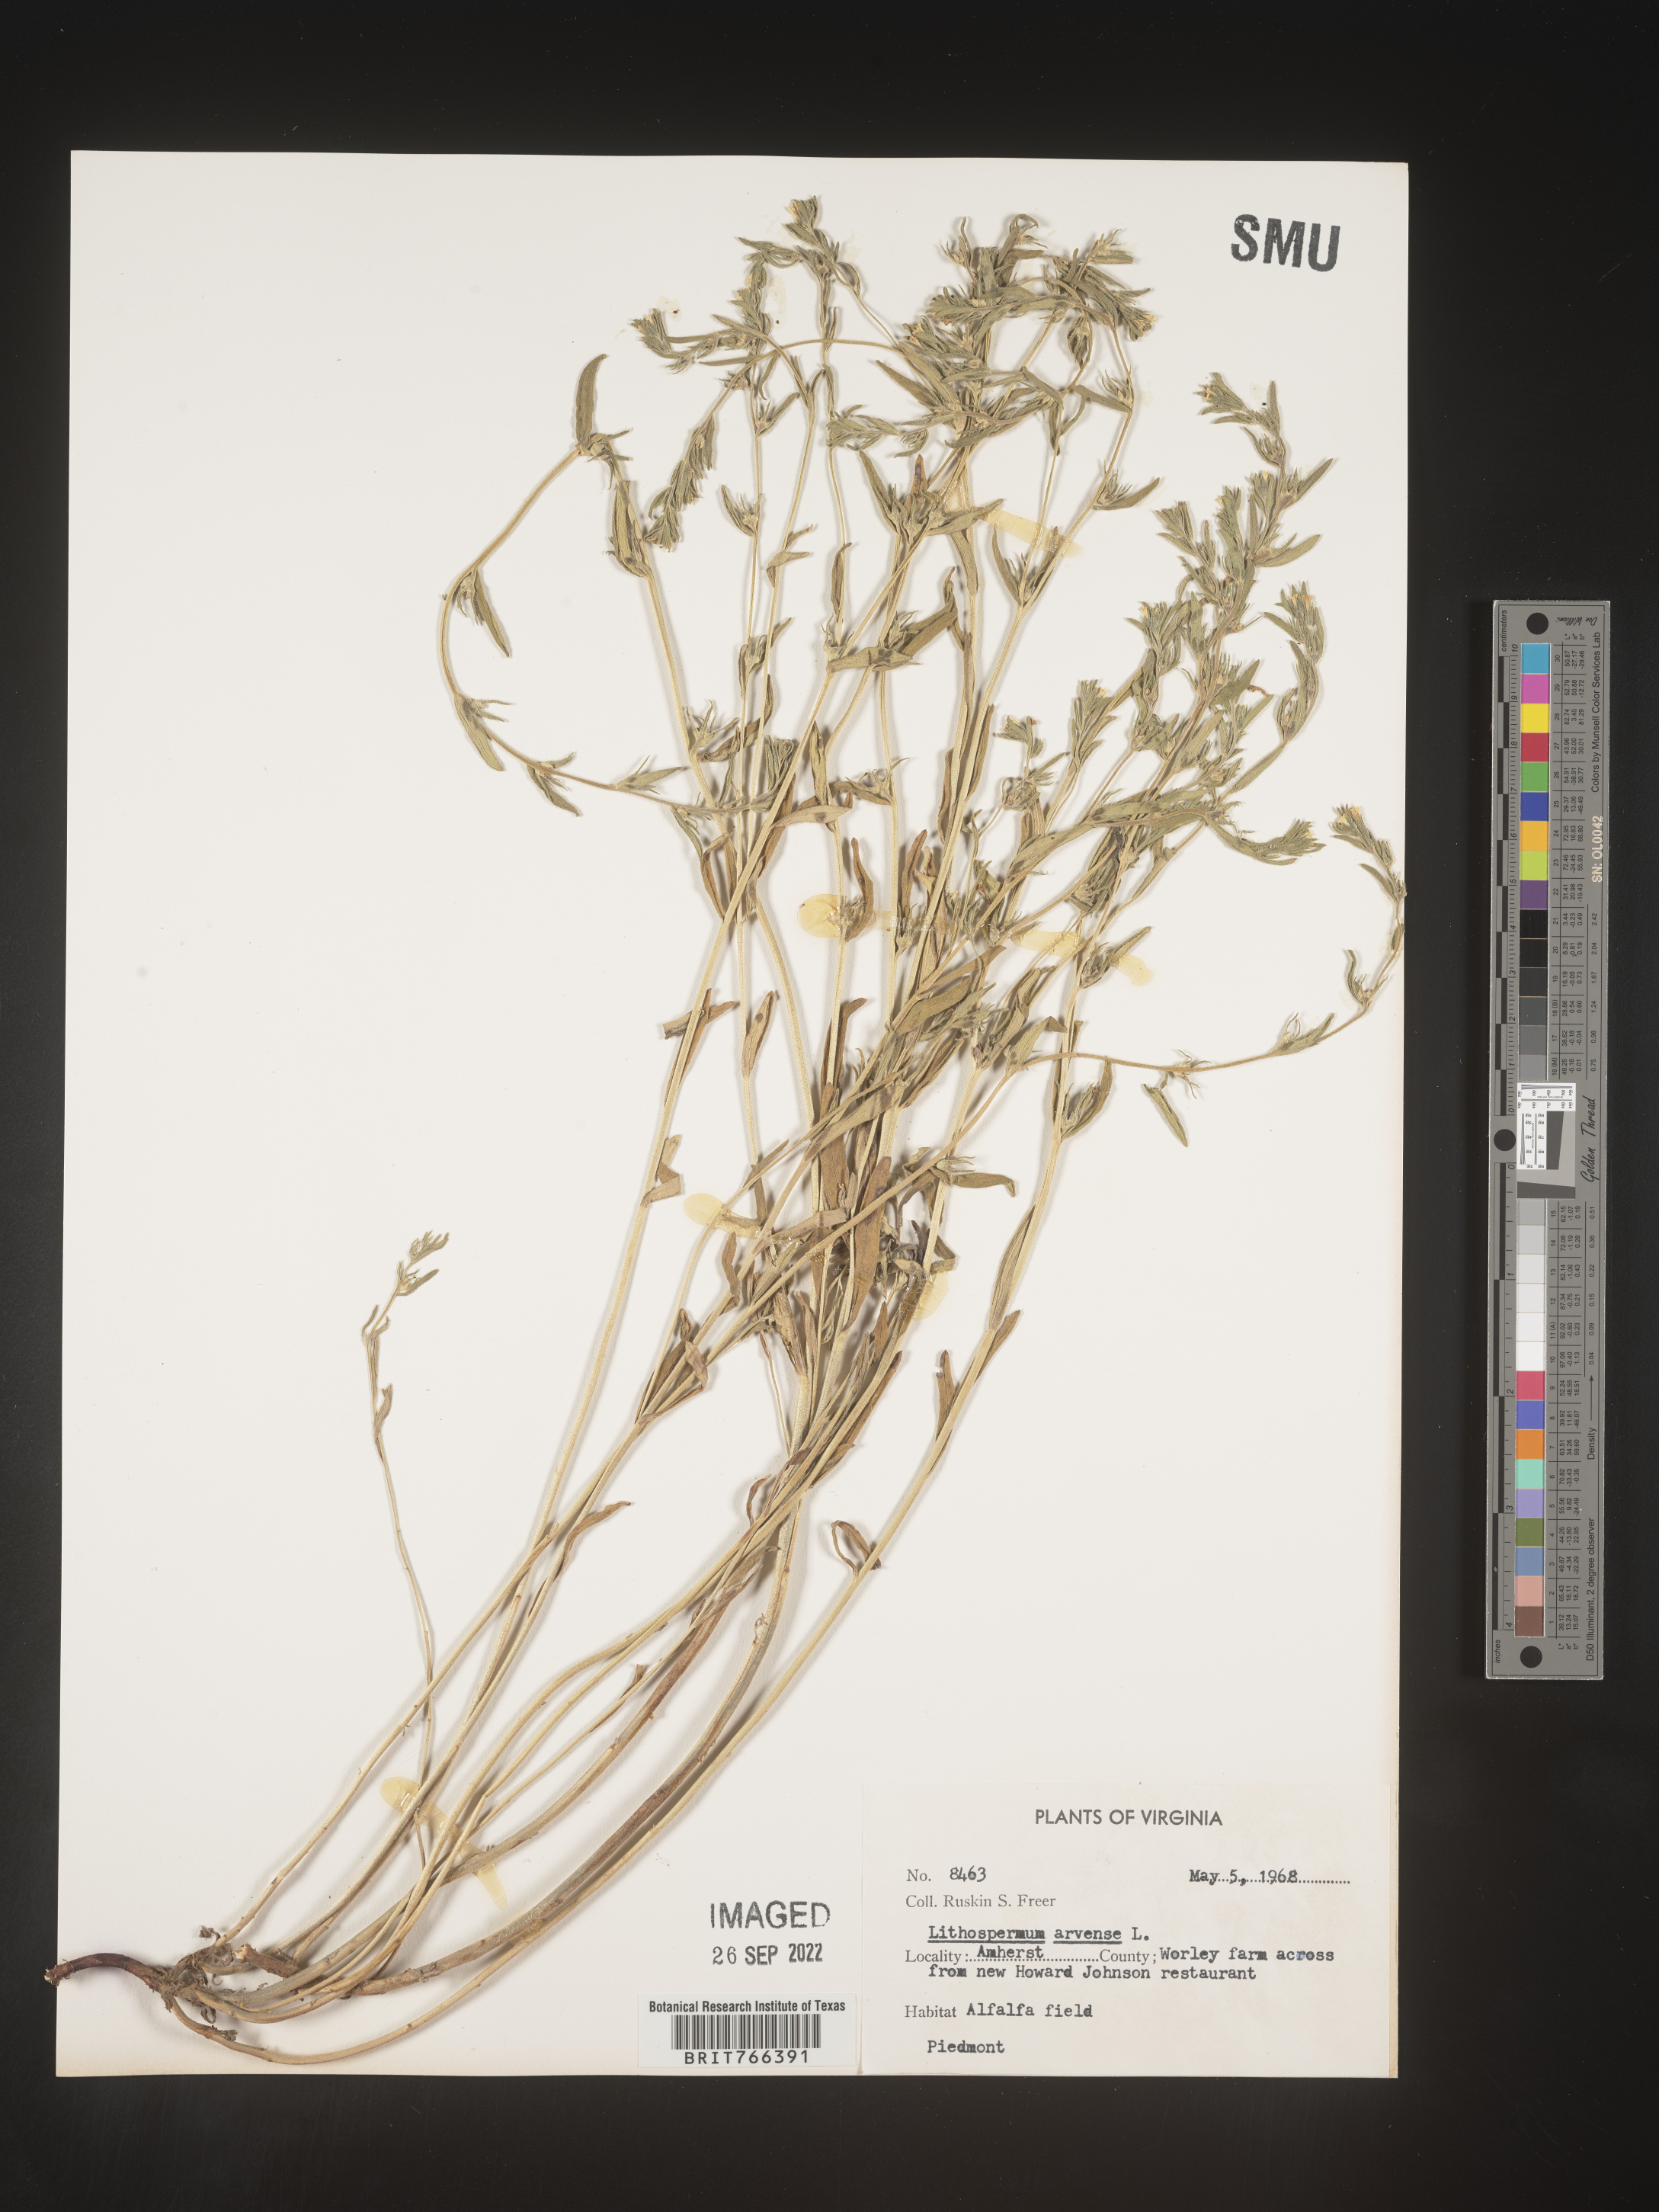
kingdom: Plantae
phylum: Tracheophyta
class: Magnoliopsida
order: Boraginales
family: Boraginaceae
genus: Buglossoides
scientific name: Buglossoides arvensis
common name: Corn gromwell
